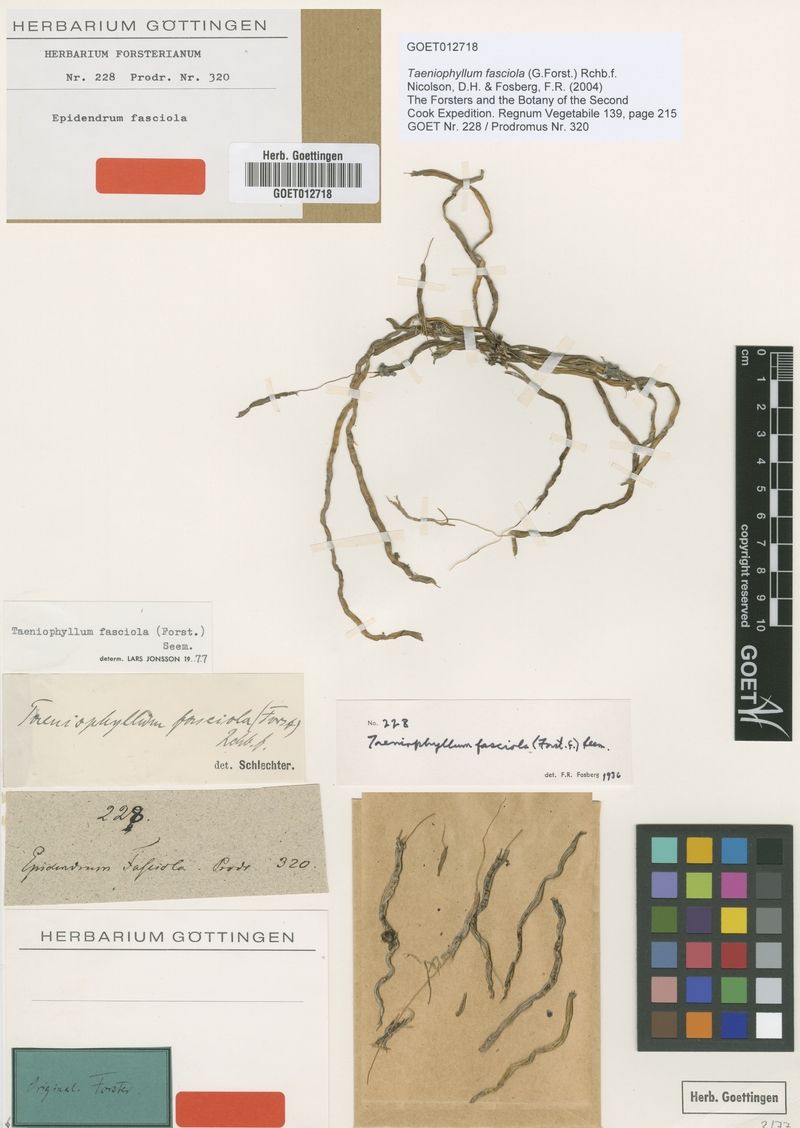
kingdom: Plantae
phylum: Tracheophyta
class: Liliopsida
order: Asparagales
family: Orchidaceae
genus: Taeniophyllum
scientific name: Taeniophyllum fasciola
